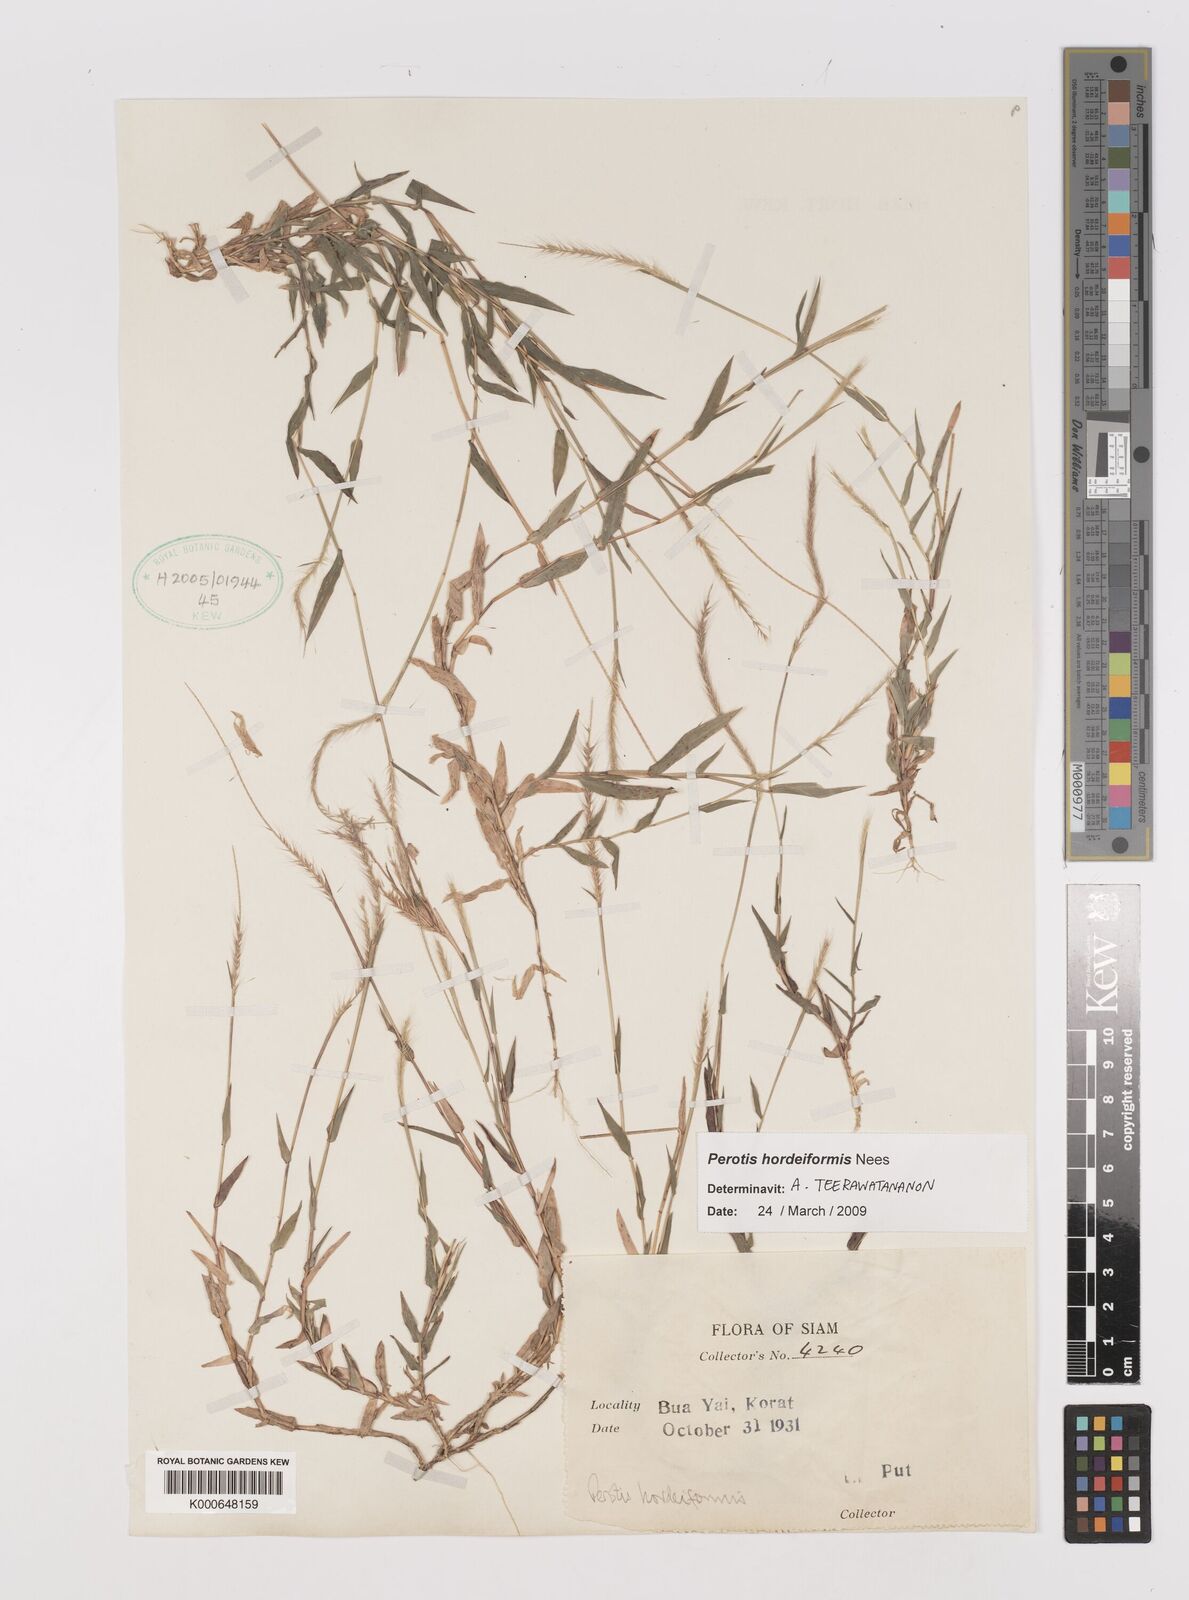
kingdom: Plantae
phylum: Tracheophyta
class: Liliopsida
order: Poales
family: Poaceae
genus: Perotis
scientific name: Perotis hordeiformis
